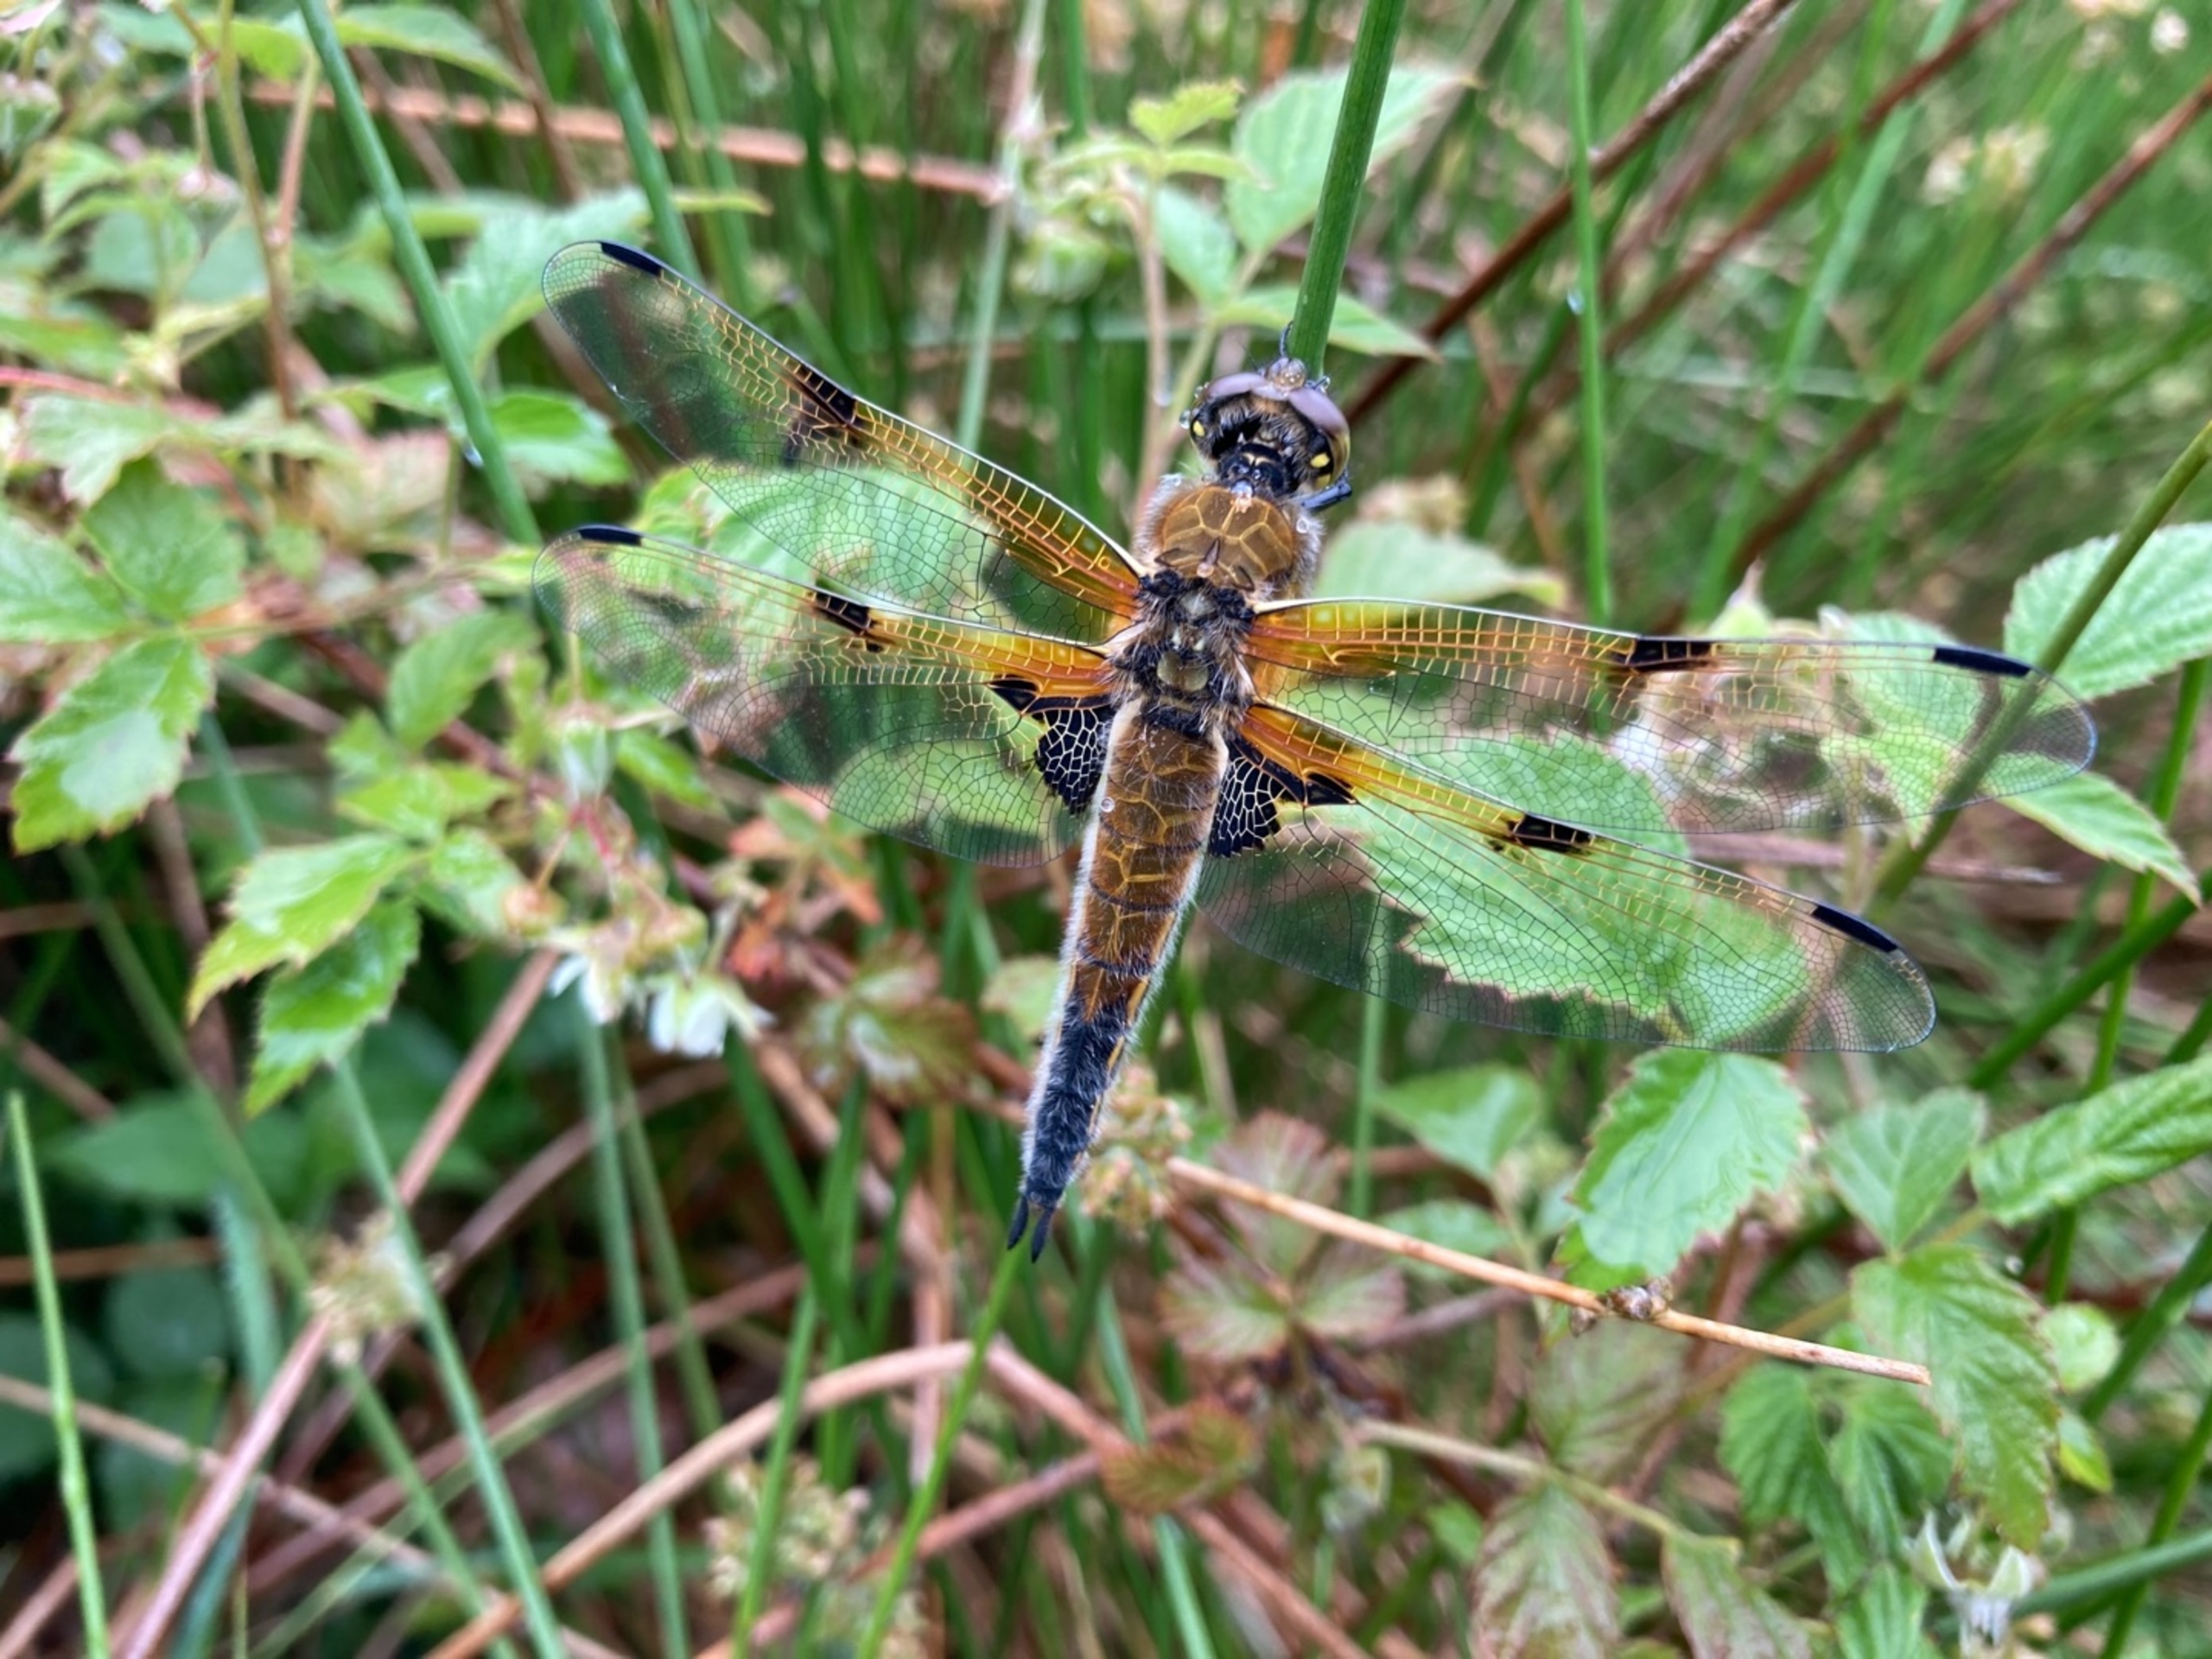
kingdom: Animalia
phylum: Arthropoda
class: Insecta
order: Odonata
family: Libellulidae
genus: Libellula
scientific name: Libellula quadrimaculata
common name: Fireplettet libel
